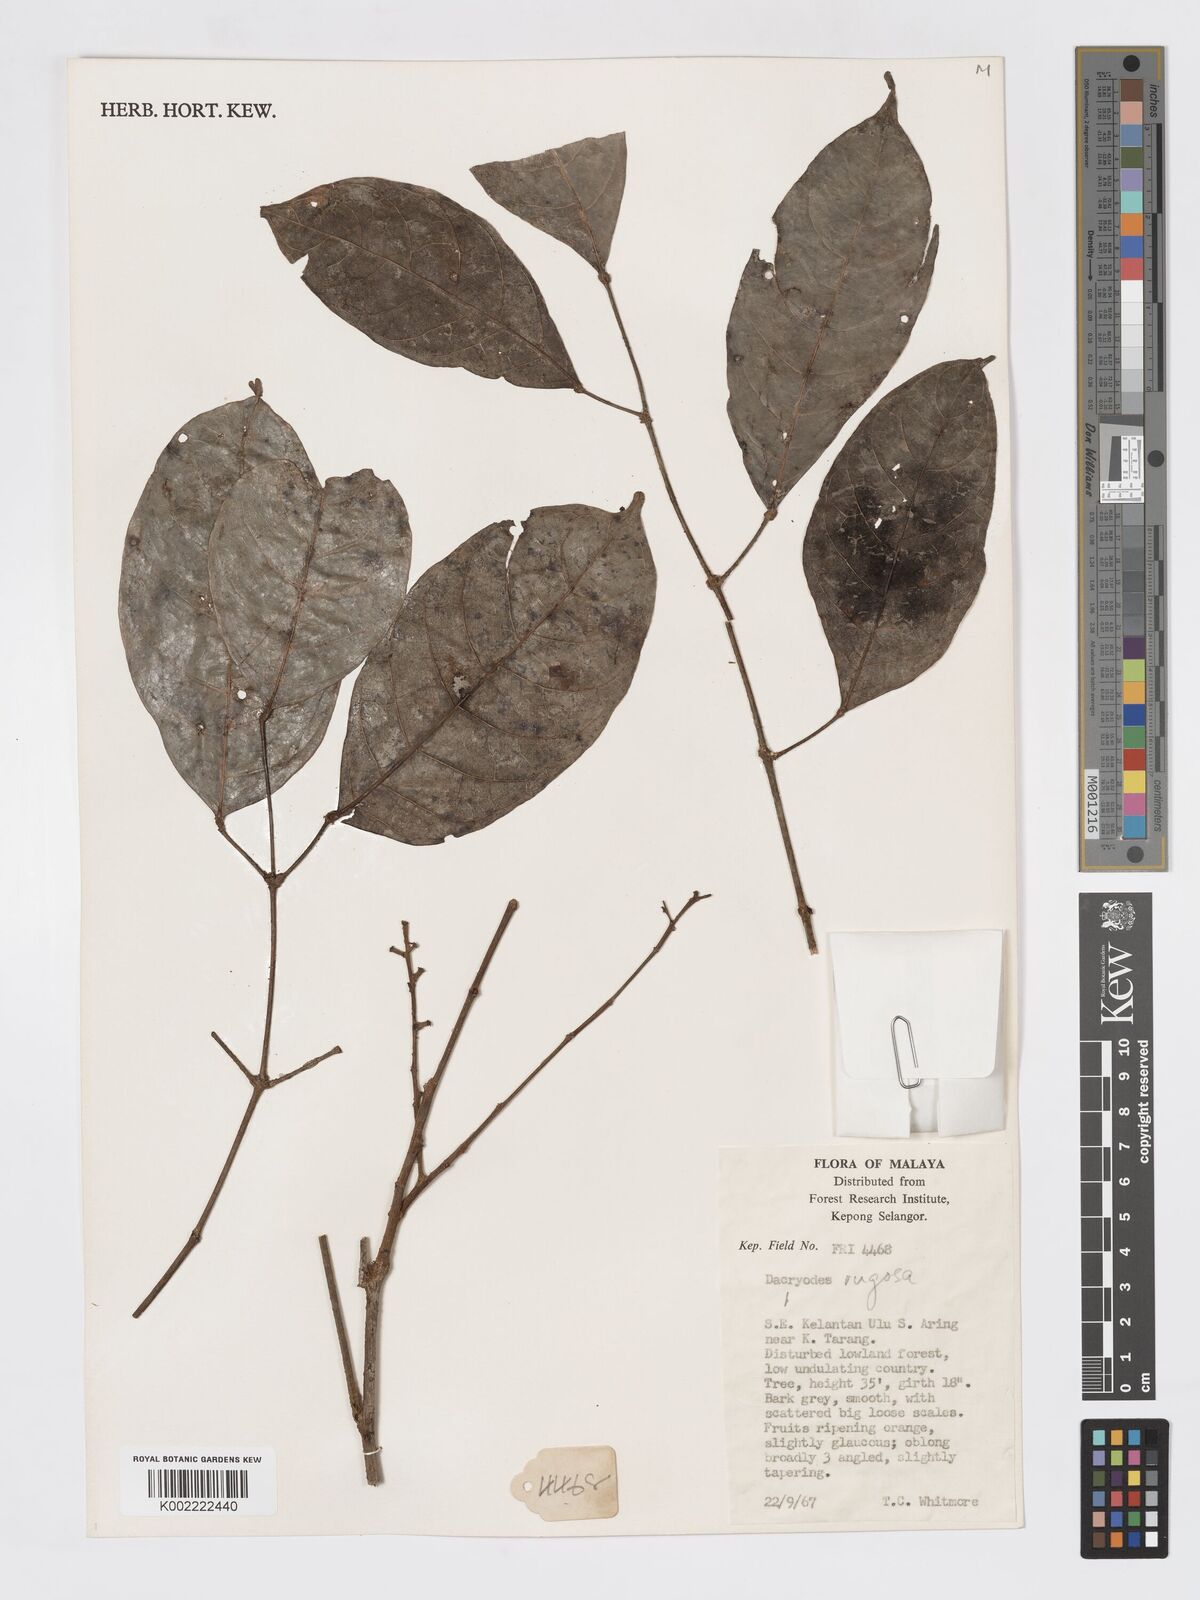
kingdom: Plantae
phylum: Tracheophyta
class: Magnoliopsida
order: Sapindales
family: Burseraceae
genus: Dacryodes
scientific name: Dacryodes rugosa
